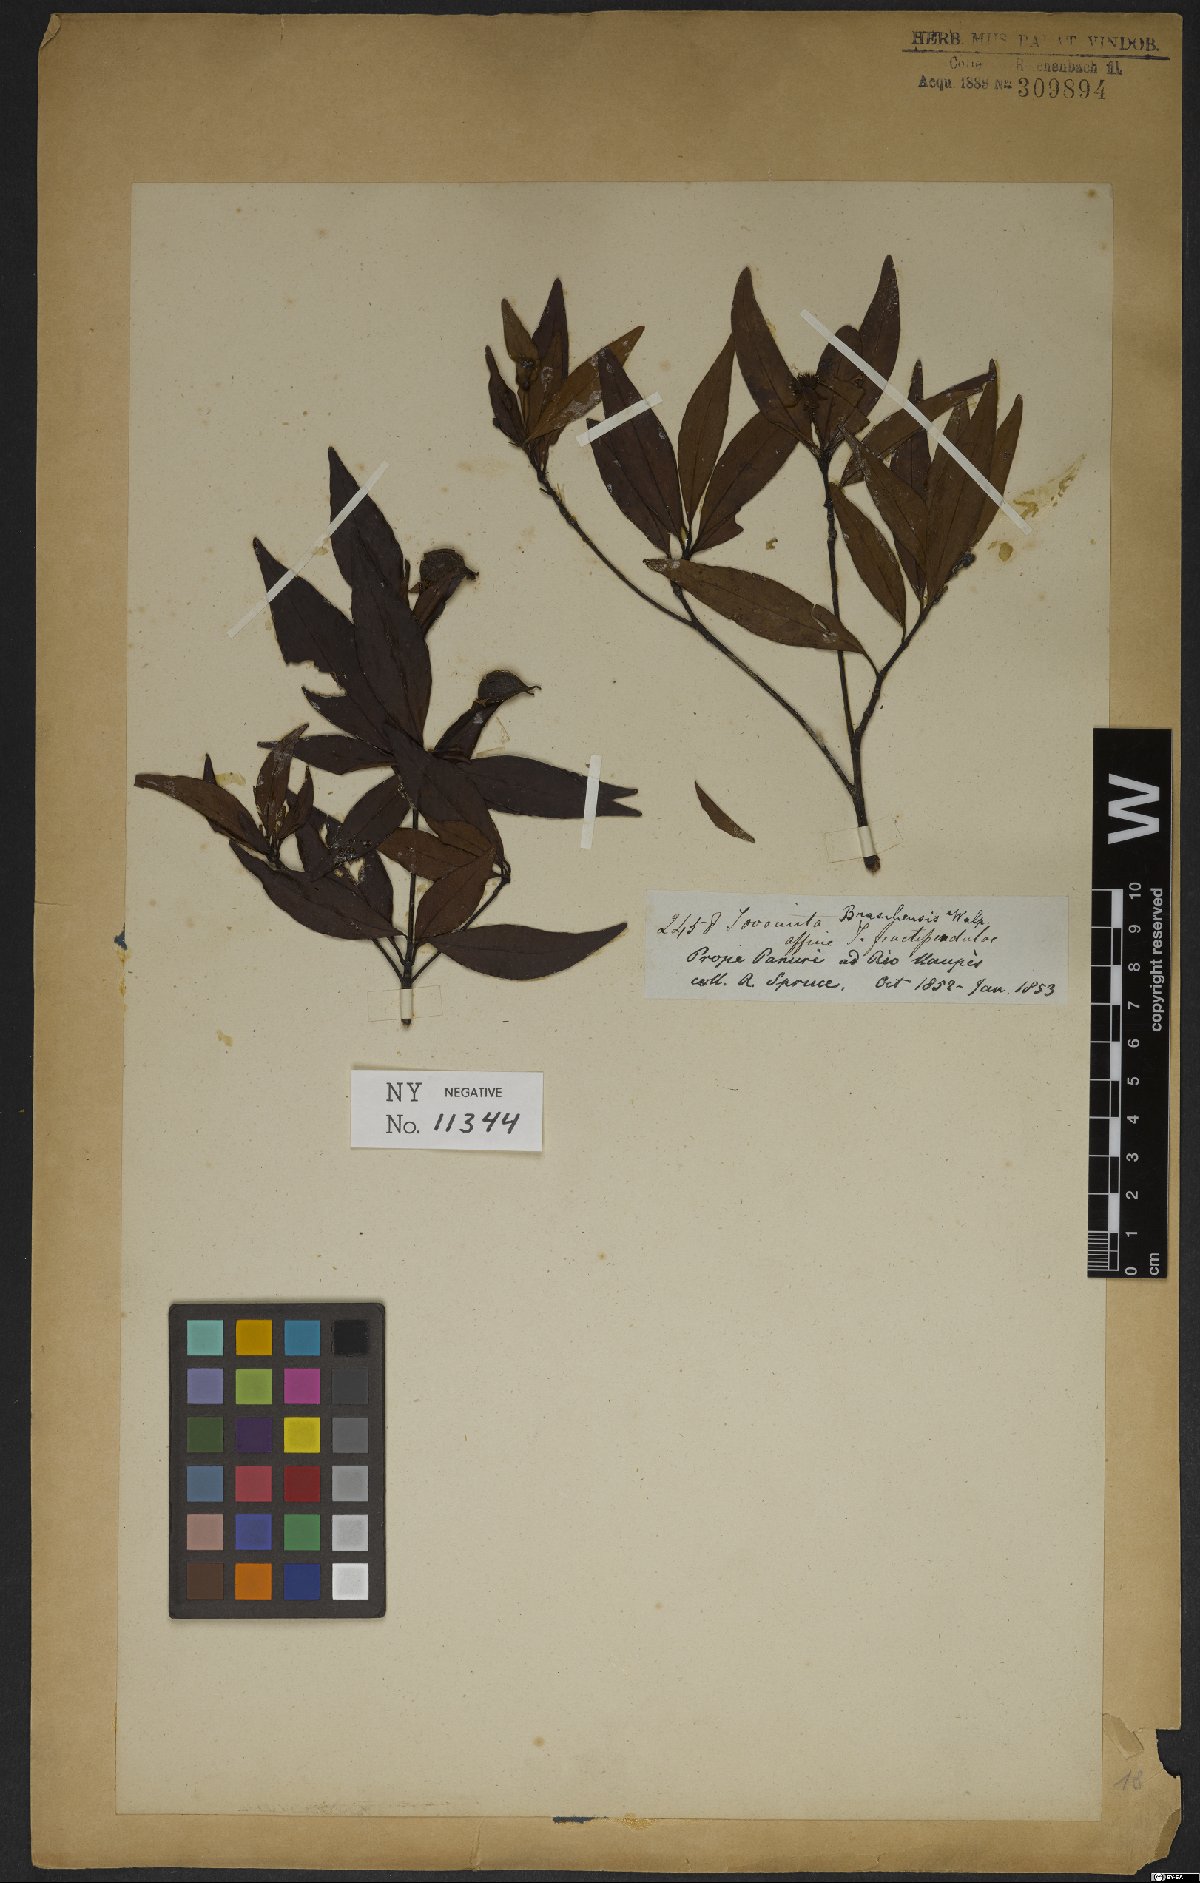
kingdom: Plantae
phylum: Tracheophyta
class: Magnoliopsida
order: Malpighiales
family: Clusiaceae
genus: Tovomita
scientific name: Tovomita fructipendula
